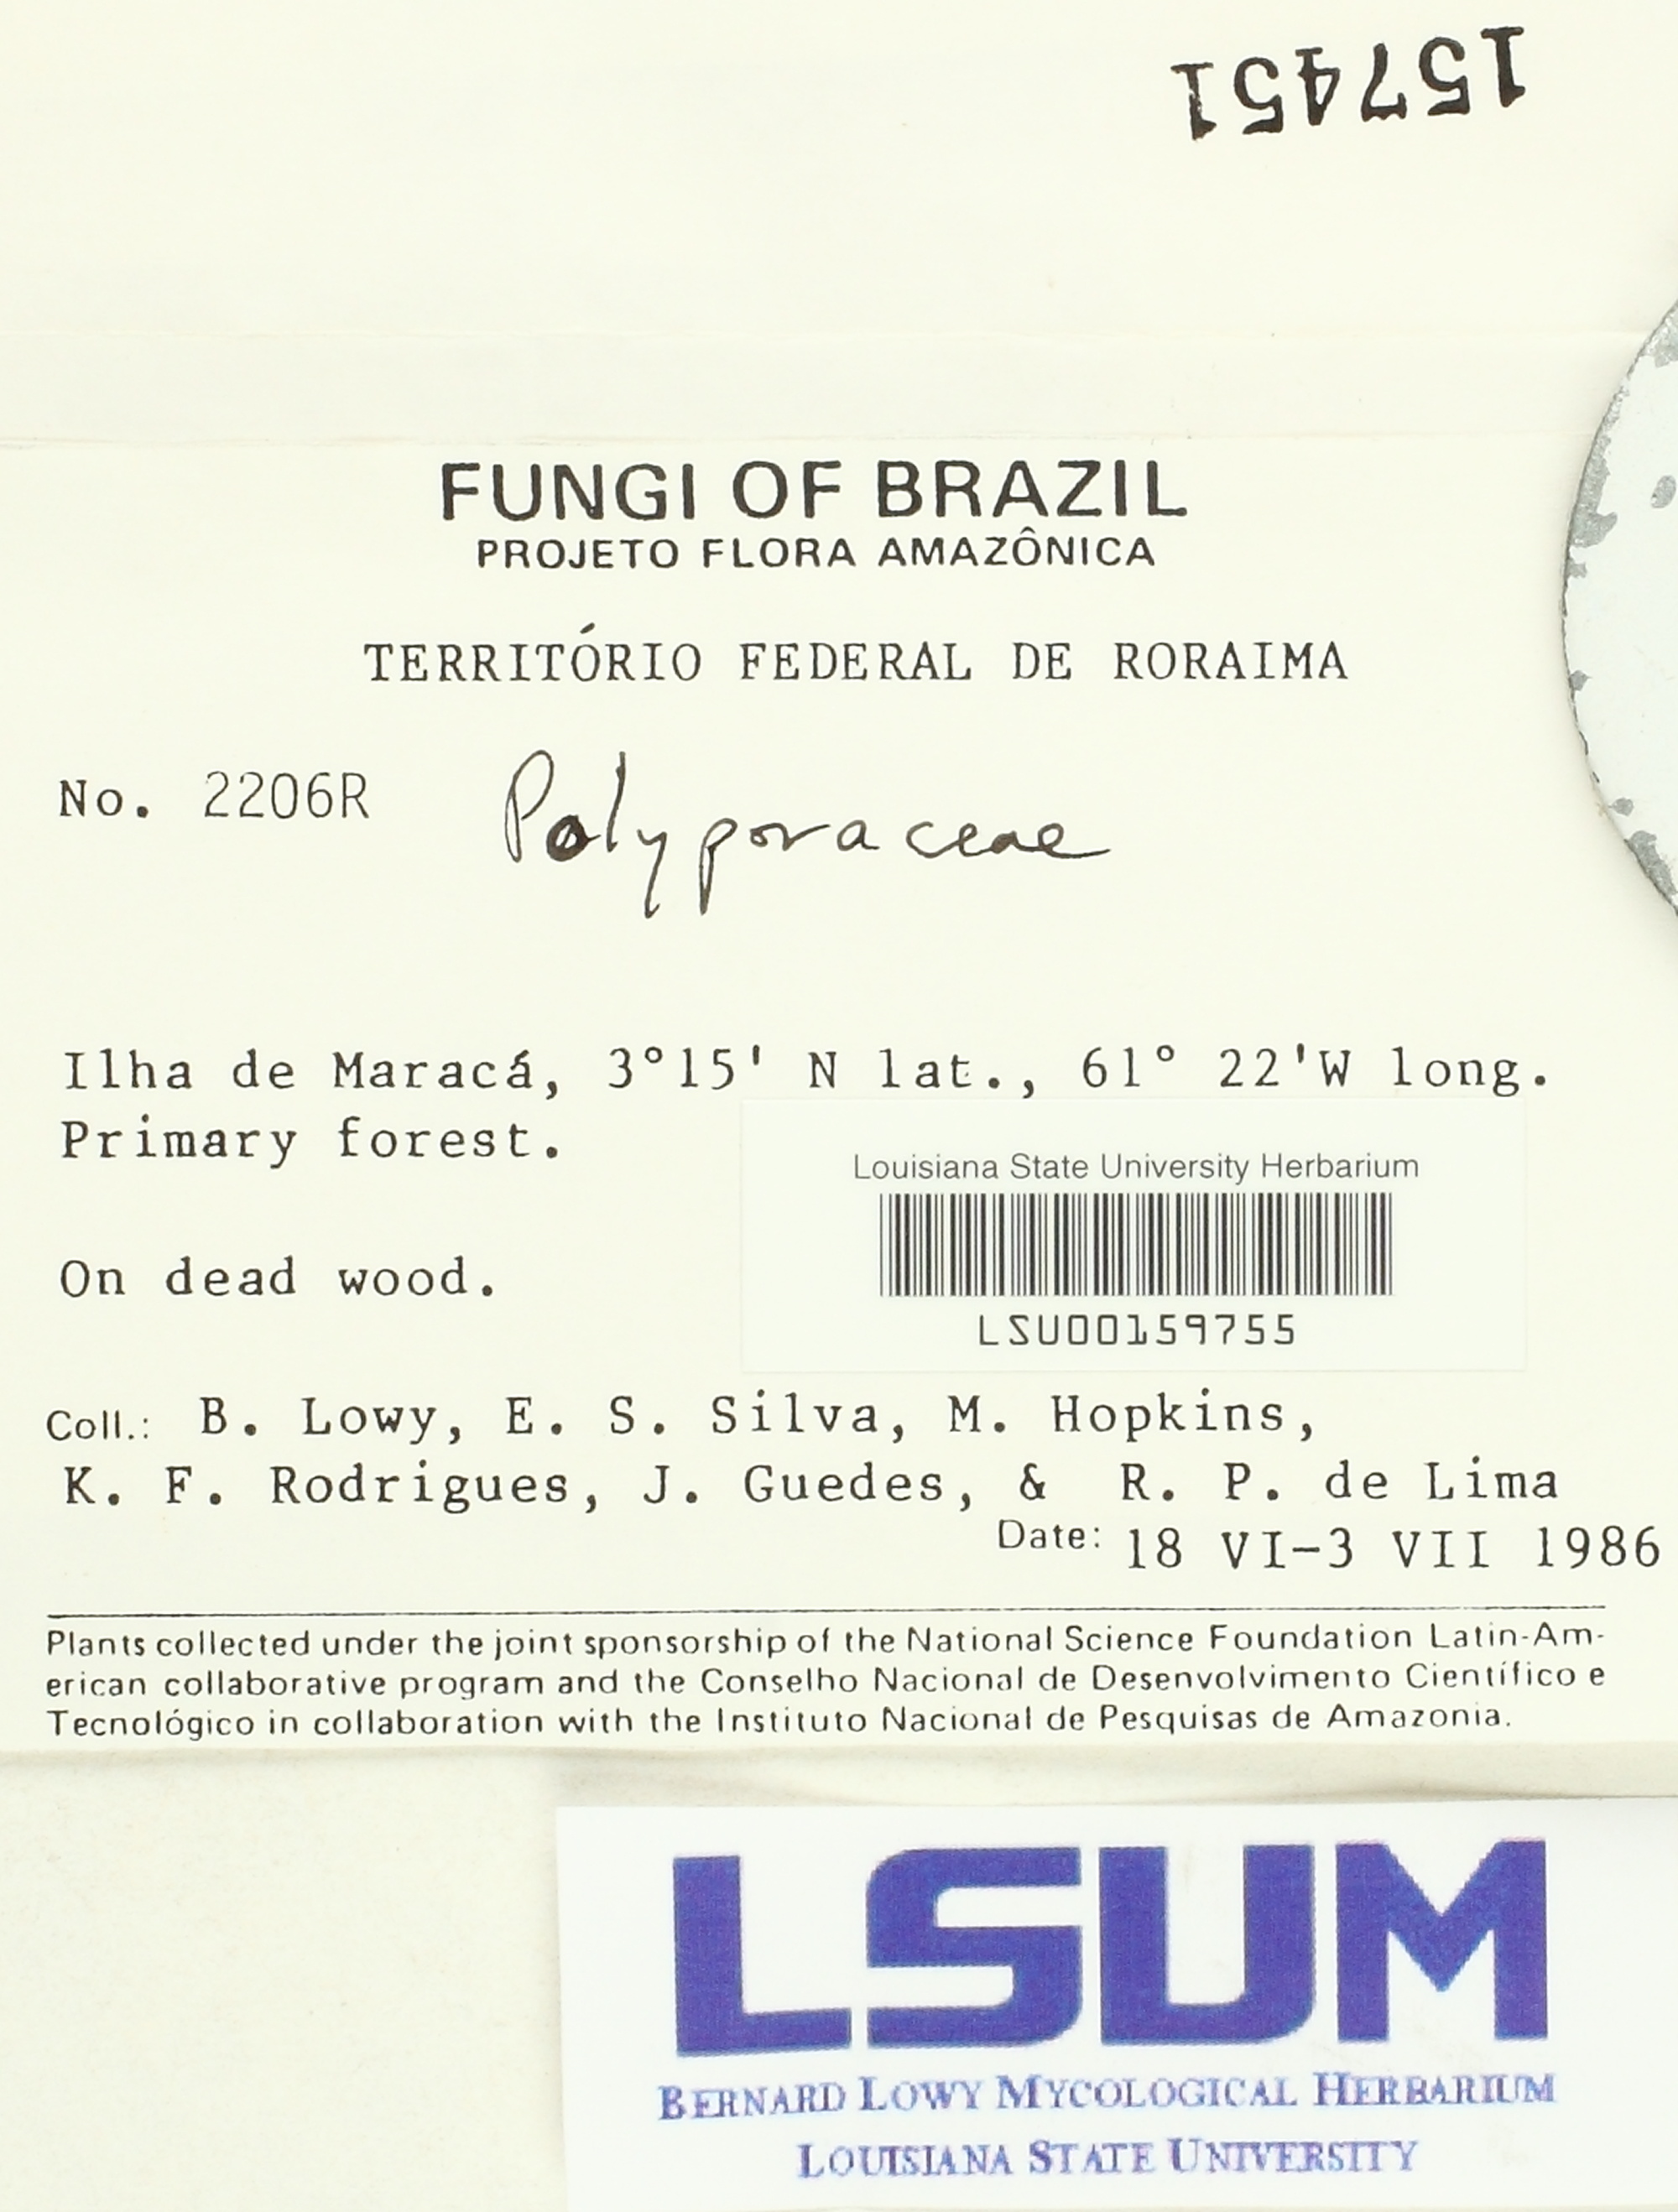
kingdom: Fungi
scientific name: Fungi
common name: Fungi
